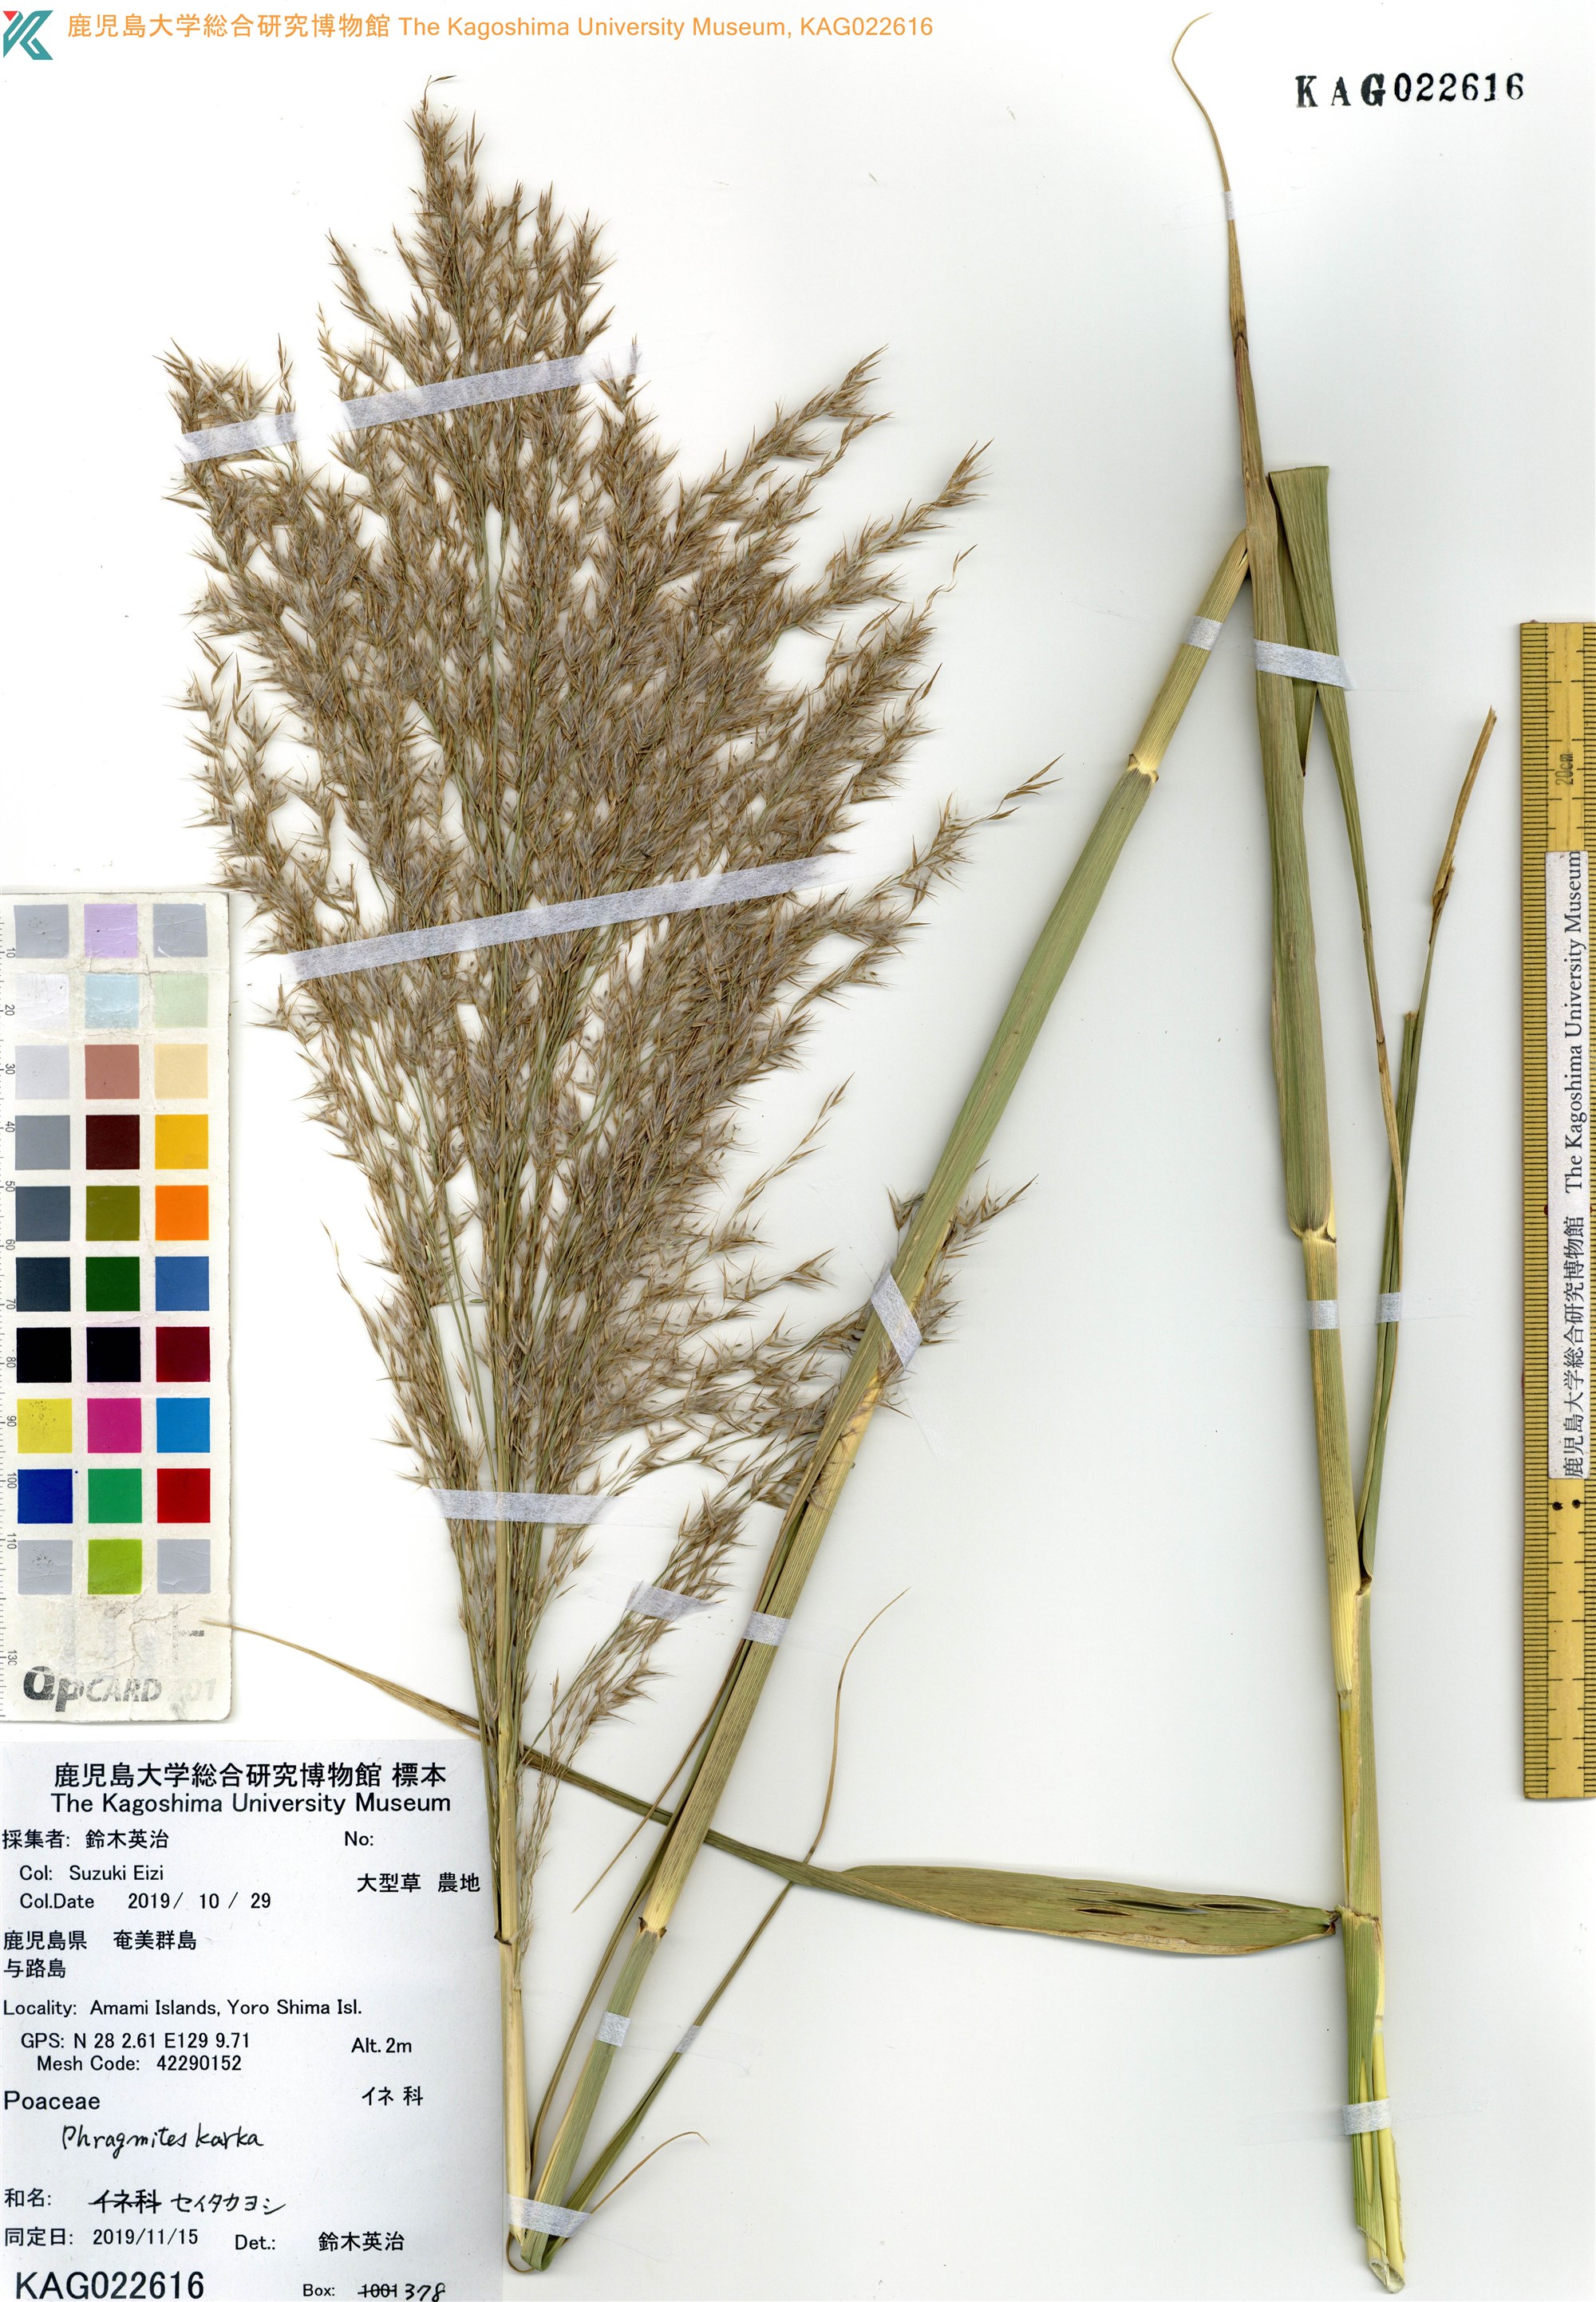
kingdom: Plantae
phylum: Tracheophyta
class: Liliopsida
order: Poales
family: Poaceae
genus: Phragmites
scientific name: Phragmites karka
